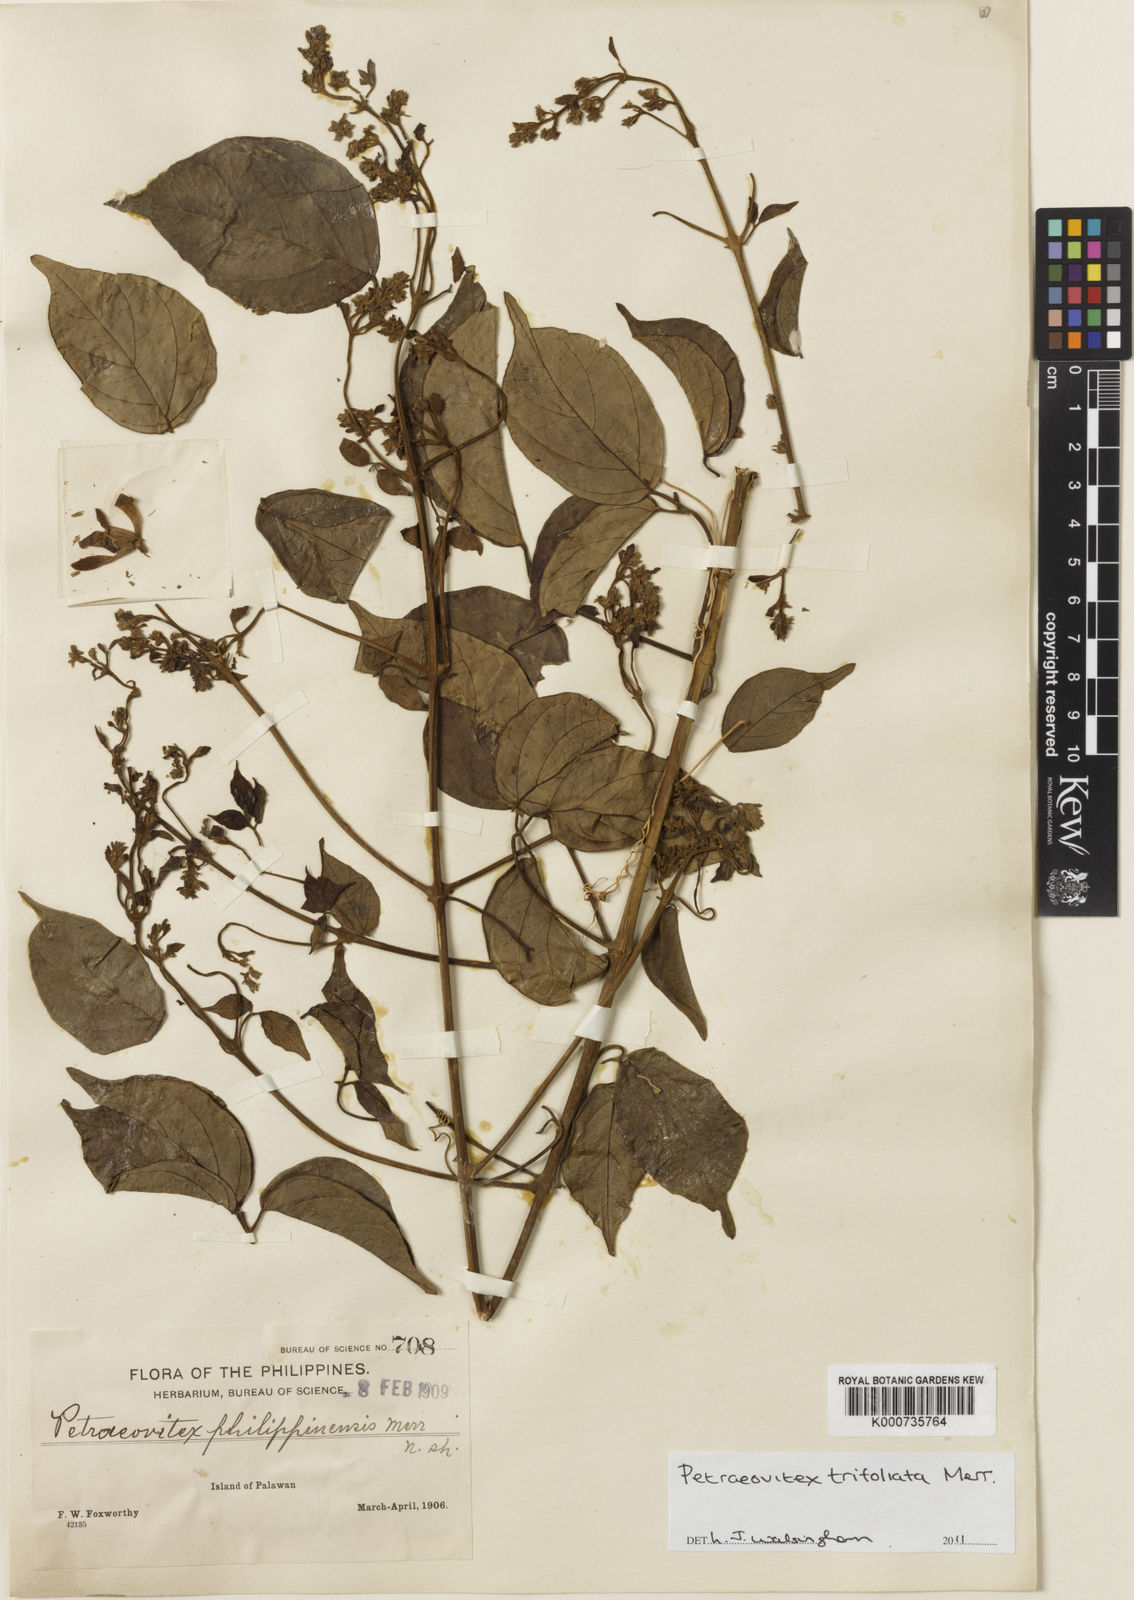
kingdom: Plantae
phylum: Tracheophyta
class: Magnoliopsida
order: Lamiales
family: Lamiaceae
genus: Petraeovitex
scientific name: Petraeovitex trifoliata
